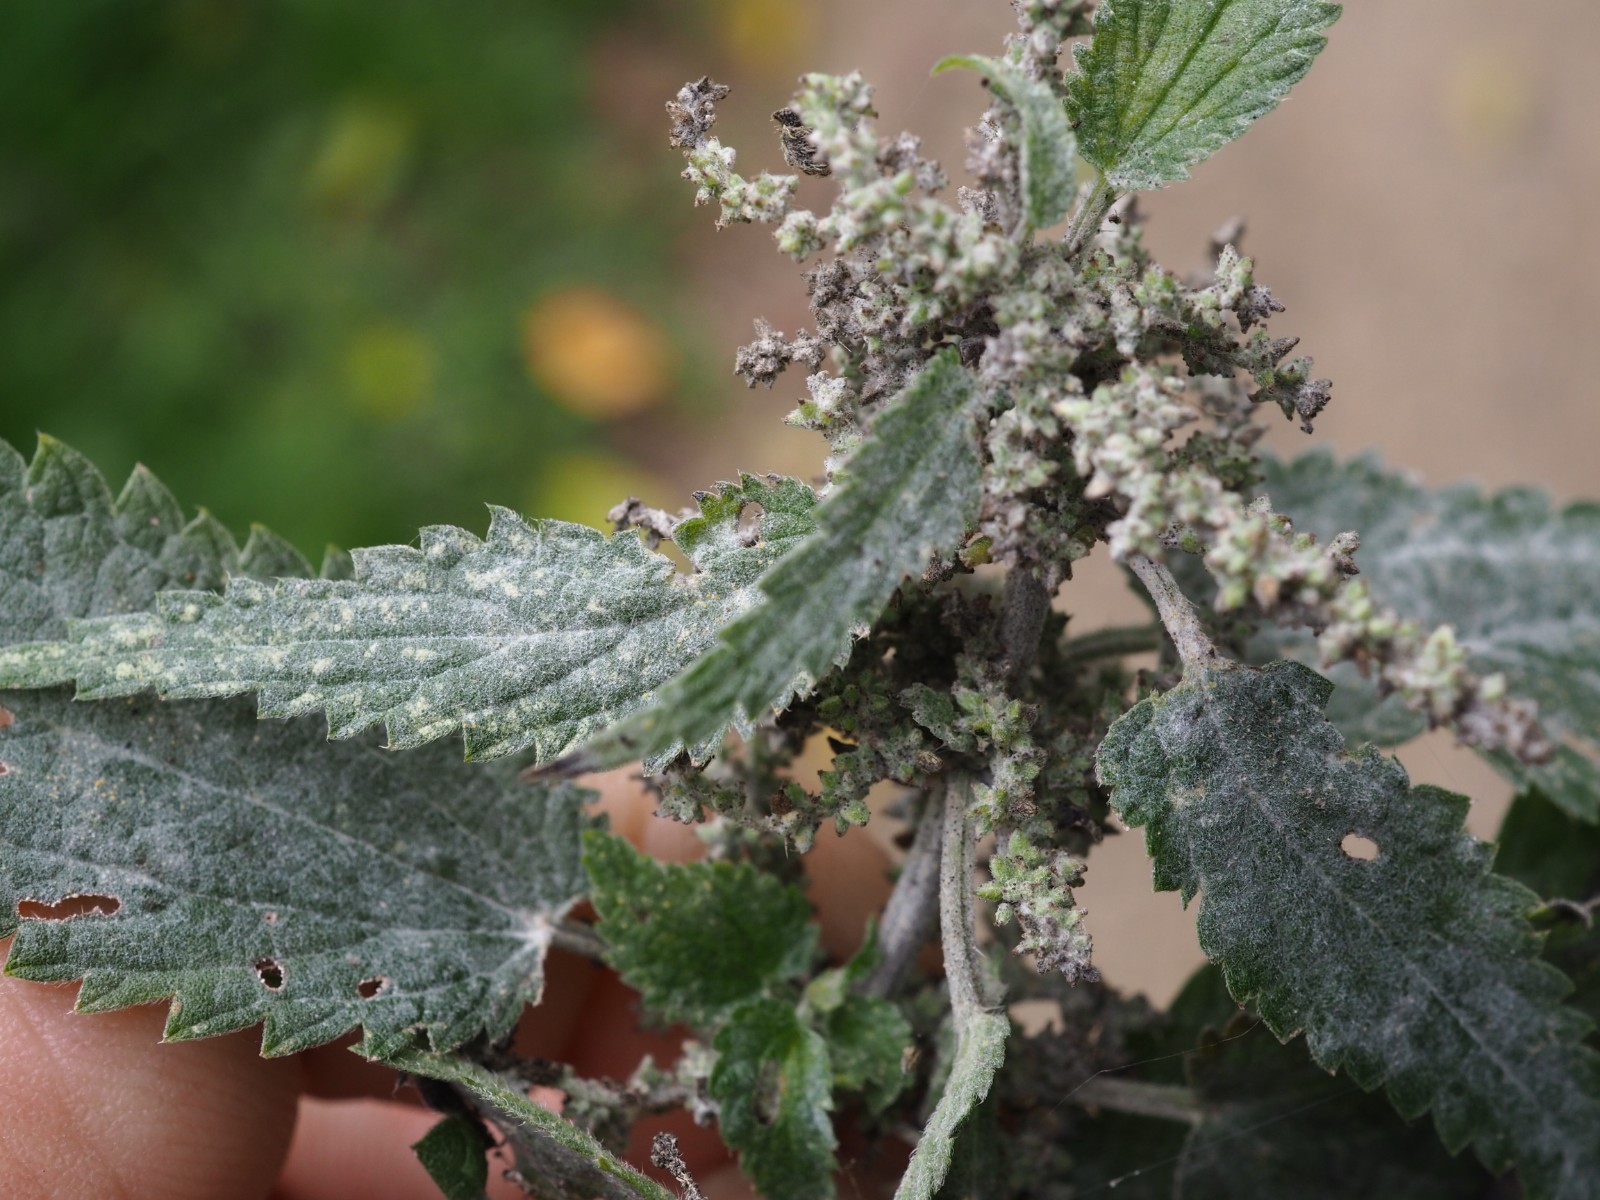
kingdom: Fungi
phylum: Ascomycota
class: Leotiomycetes
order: Helotiales
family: Erysiphaceae
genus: Erysiphe
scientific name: Erysiphe urticae
